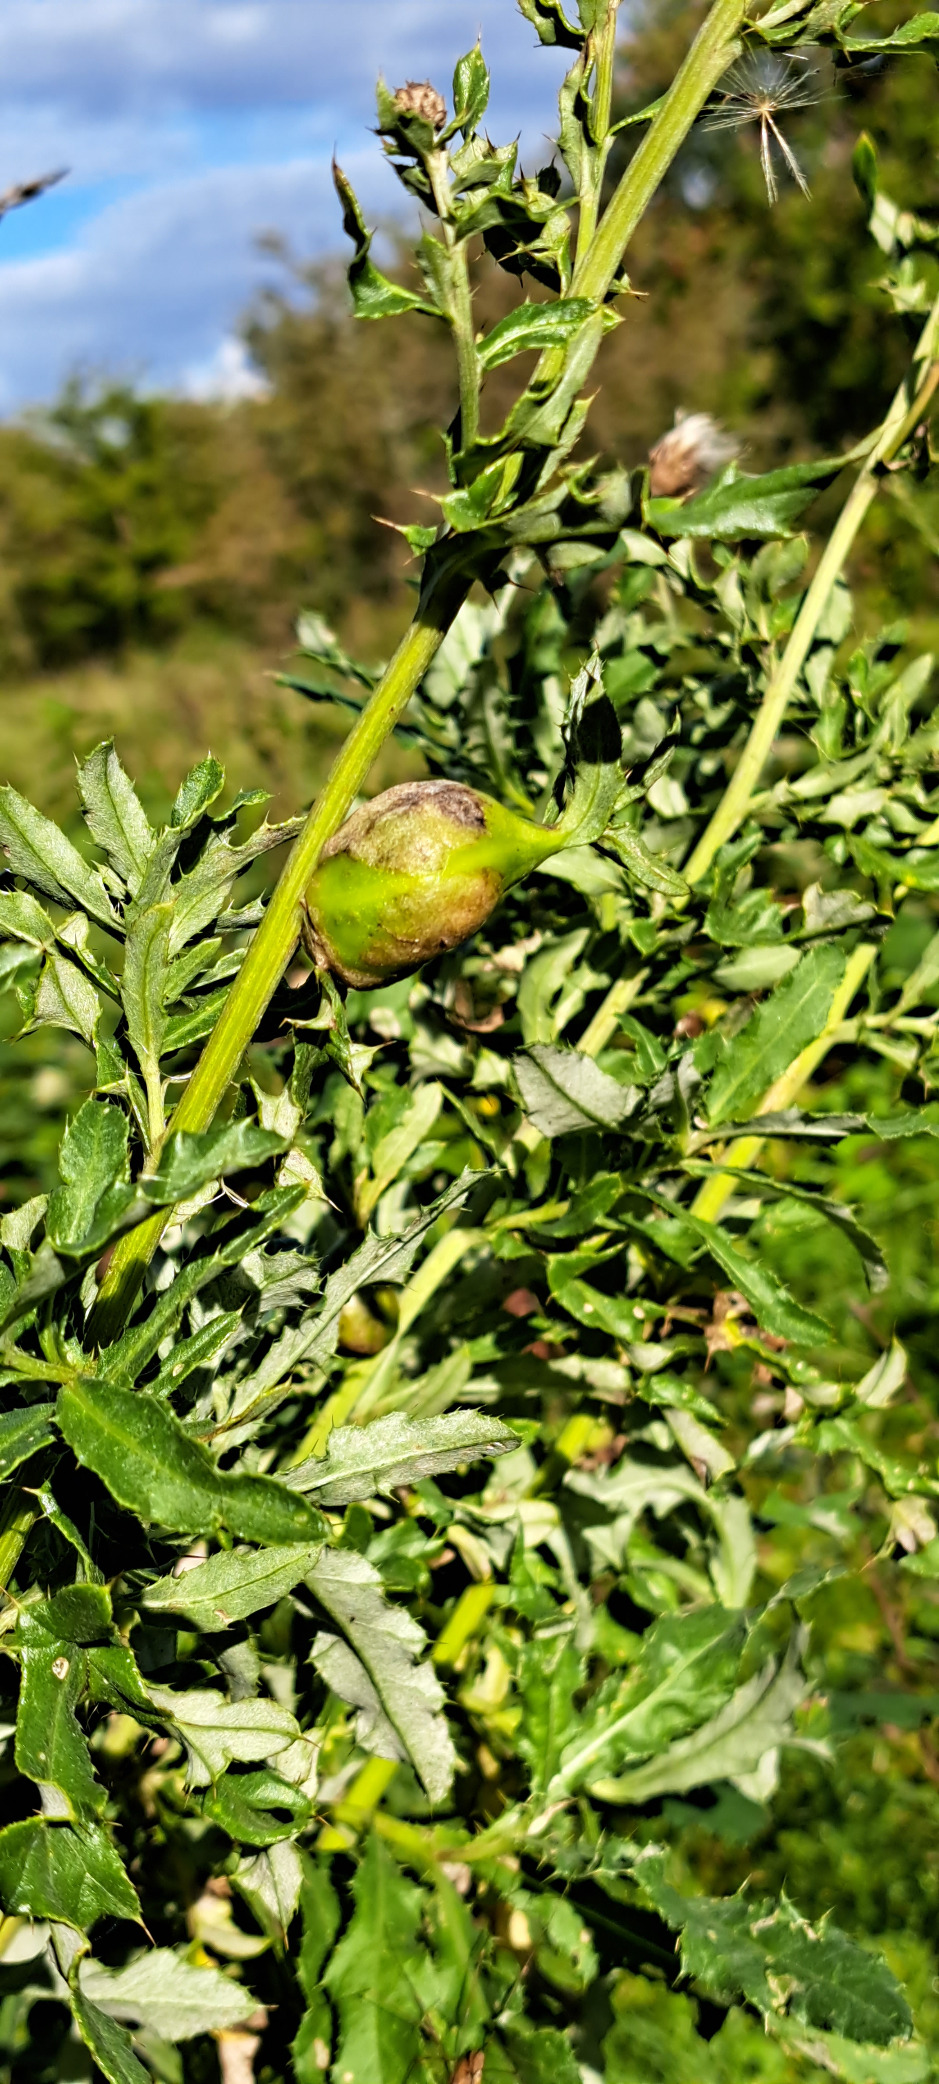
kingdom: Animalia
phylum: Arthropoda
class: Insecta
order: Diptera
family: Tephritidae
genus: Urophora
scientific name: Urophora cardui
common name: Tidselbåndflue
